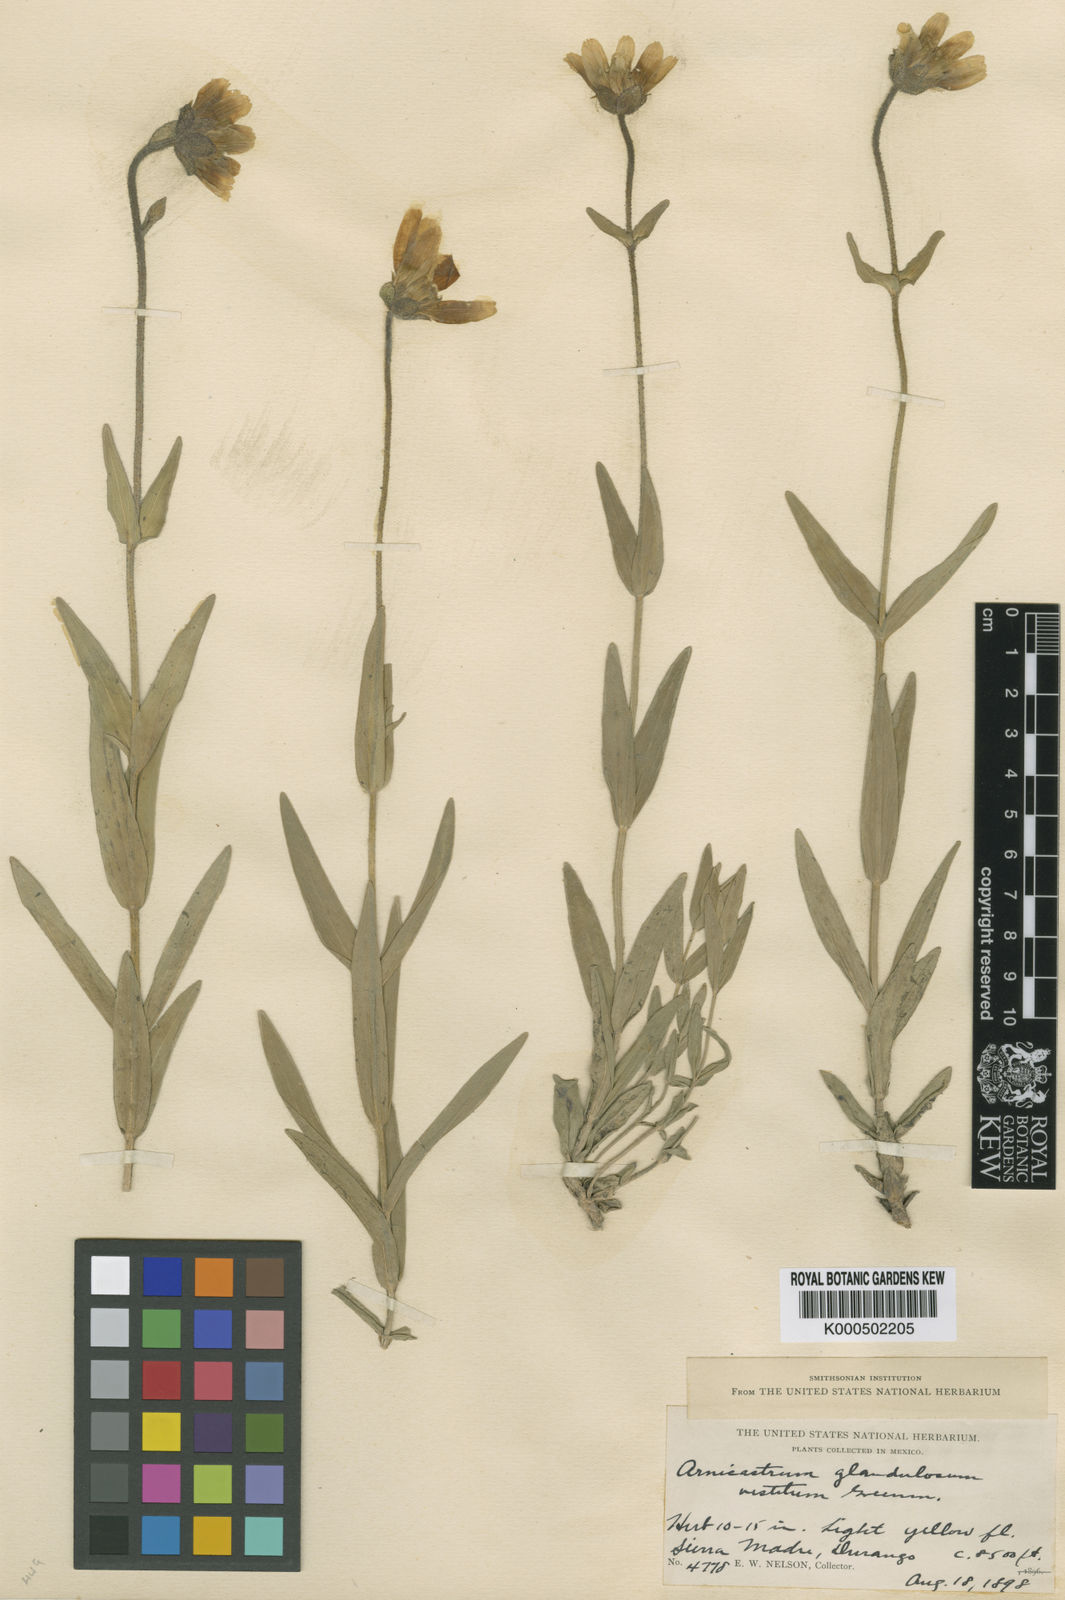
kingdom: Plantae
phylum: Tracheophyta
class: Magnoliopsida
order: Asterales
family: Asteraceae
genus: Arnicastrum
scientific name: Arnicastrum glandulosum
